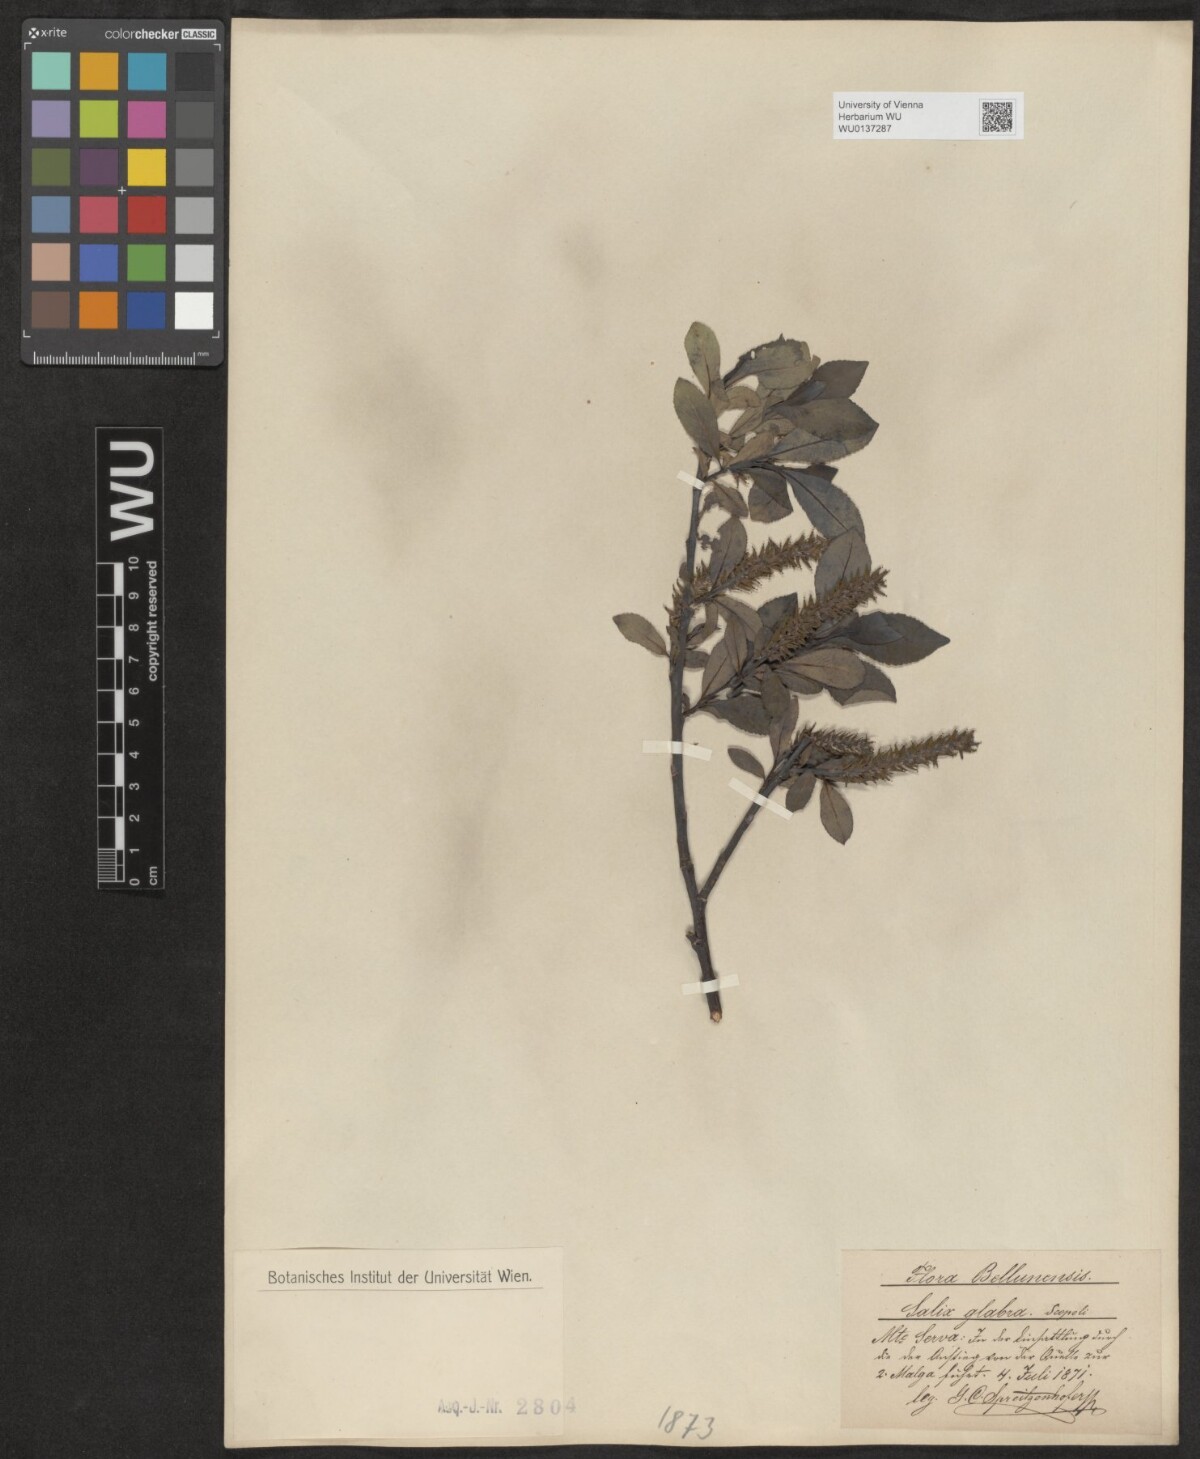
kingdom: Plantae
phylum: Tracheophyta
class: Magnoliopsida
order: Malpighiales
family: Salicaceae
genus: Salix
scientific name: Salix glabra
